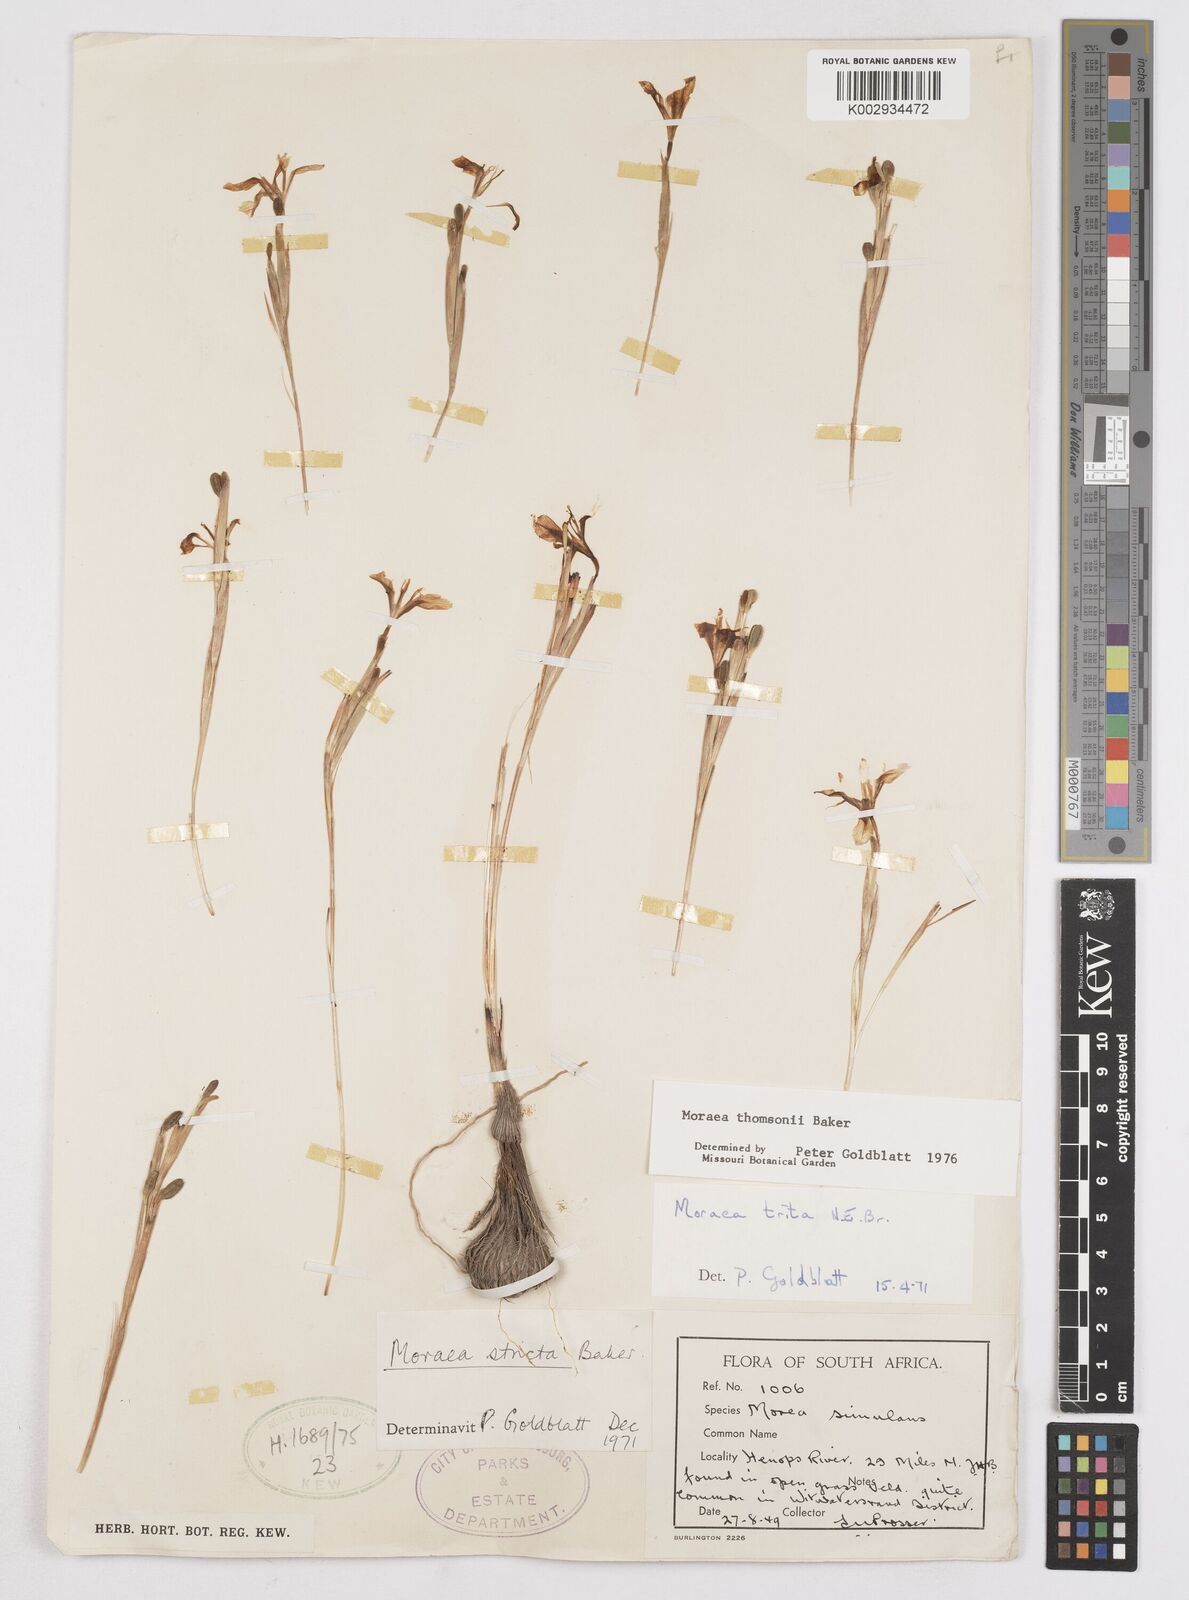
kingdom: Plantae
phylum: Tracheophyta
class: Liliopsida
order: Asparagales
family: Iridaceae
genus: Moraea
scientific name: Moraea thomsonii
